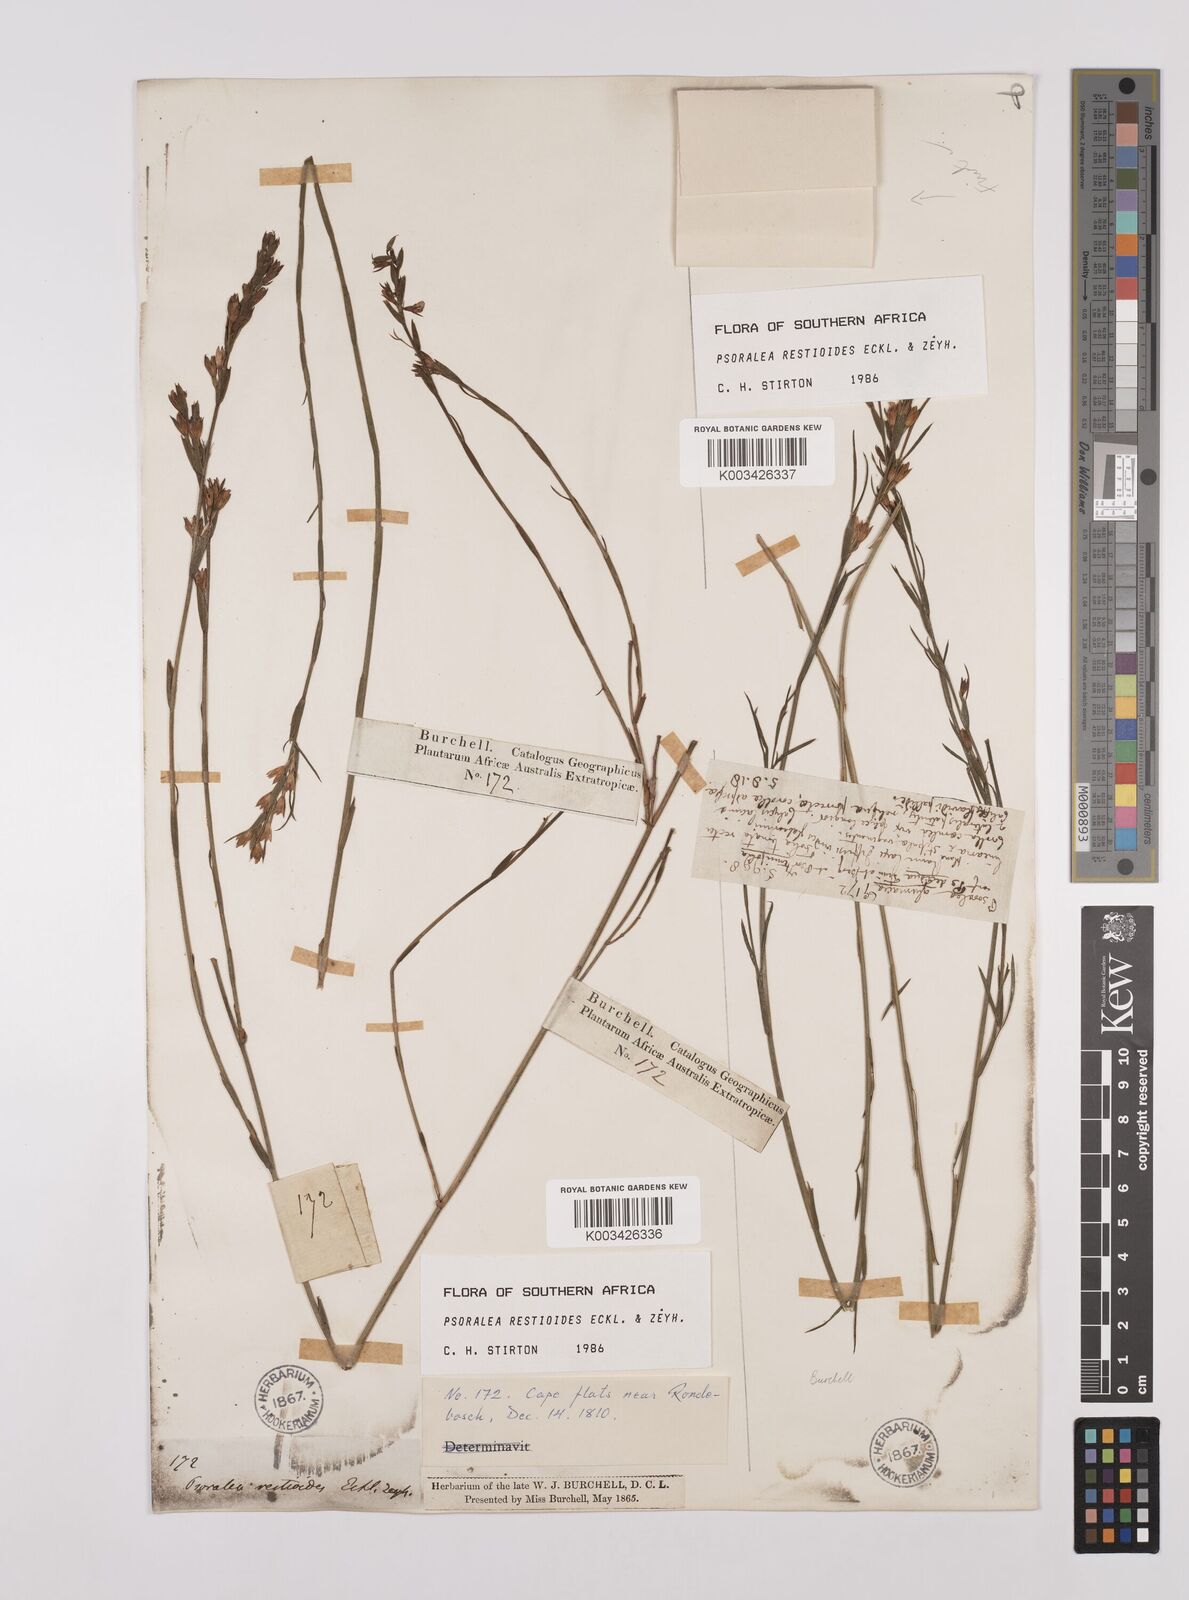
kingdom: Plantae
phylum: Tracheophyta
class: Magnoliopsida
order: Fabales
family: Fabaceae
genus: Psoralea
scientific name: Psoralea restioides
